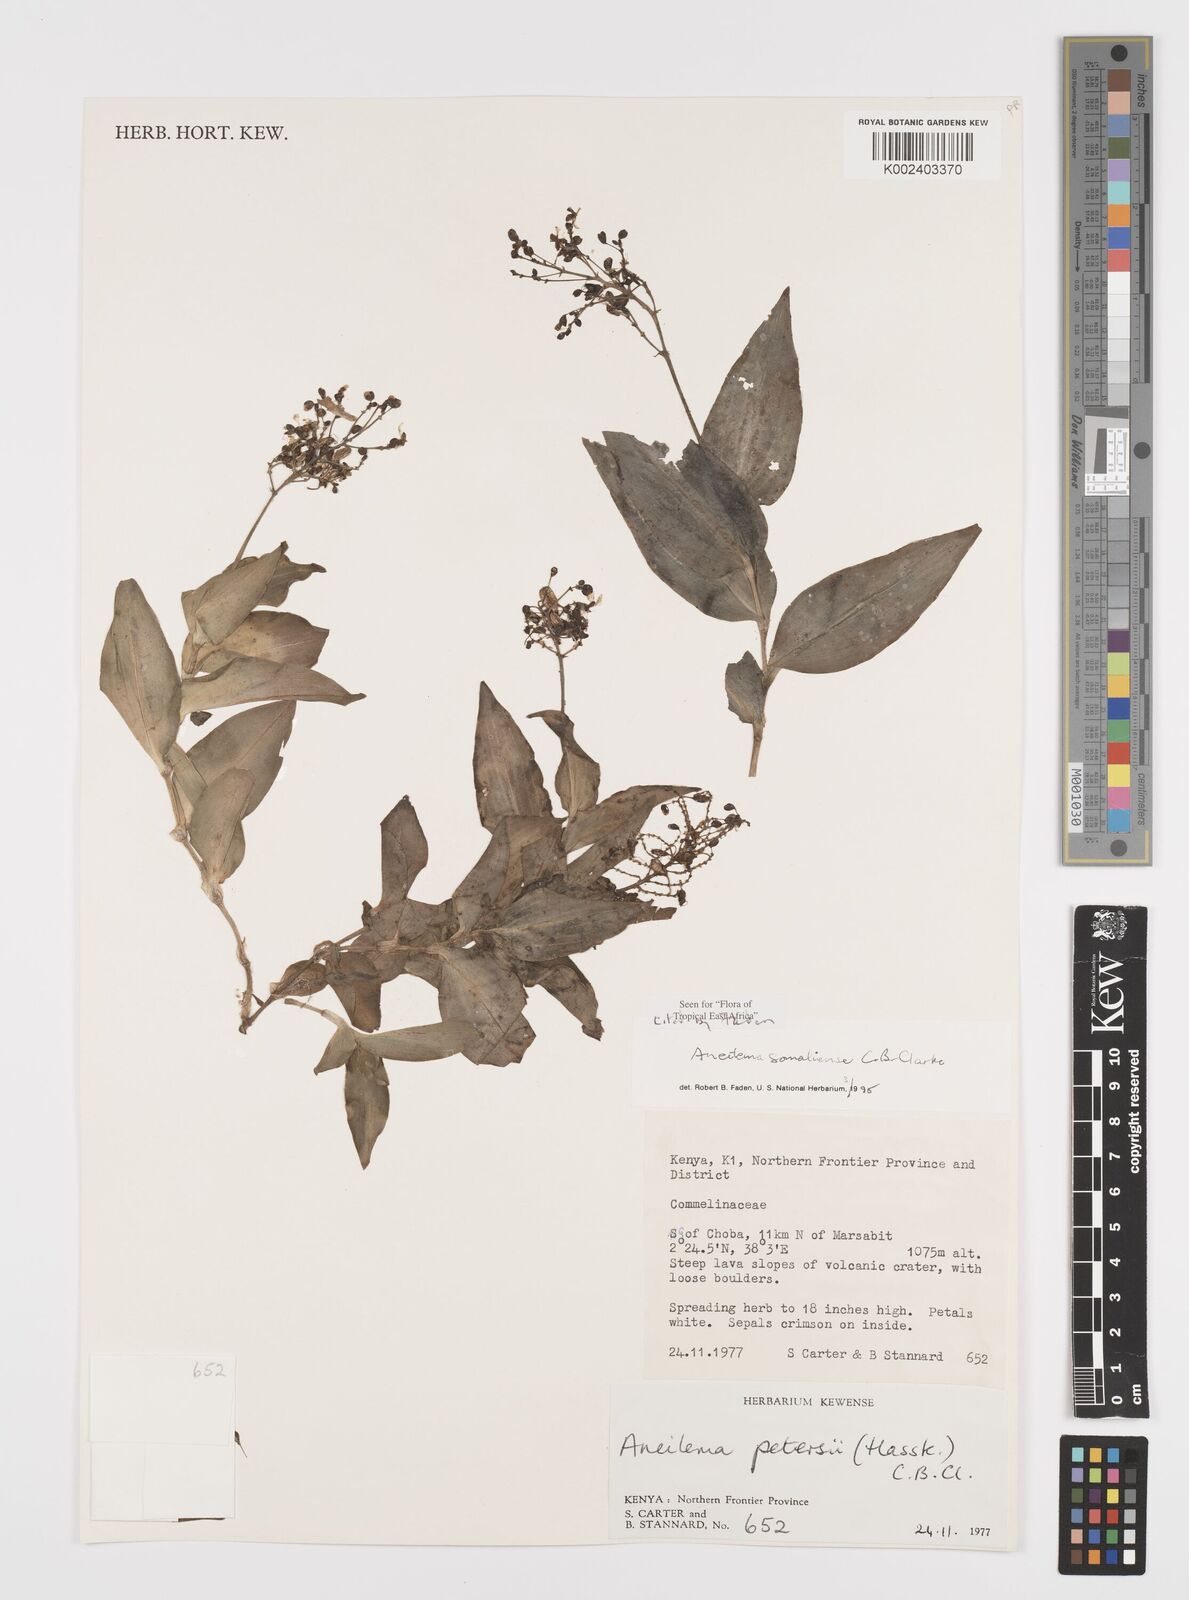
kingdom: Plantae
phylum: Tracheophyta
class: Liliopsida
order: Commelinales
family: Commelinaceae
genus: Aneilema
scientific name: Aneilema somaliense
